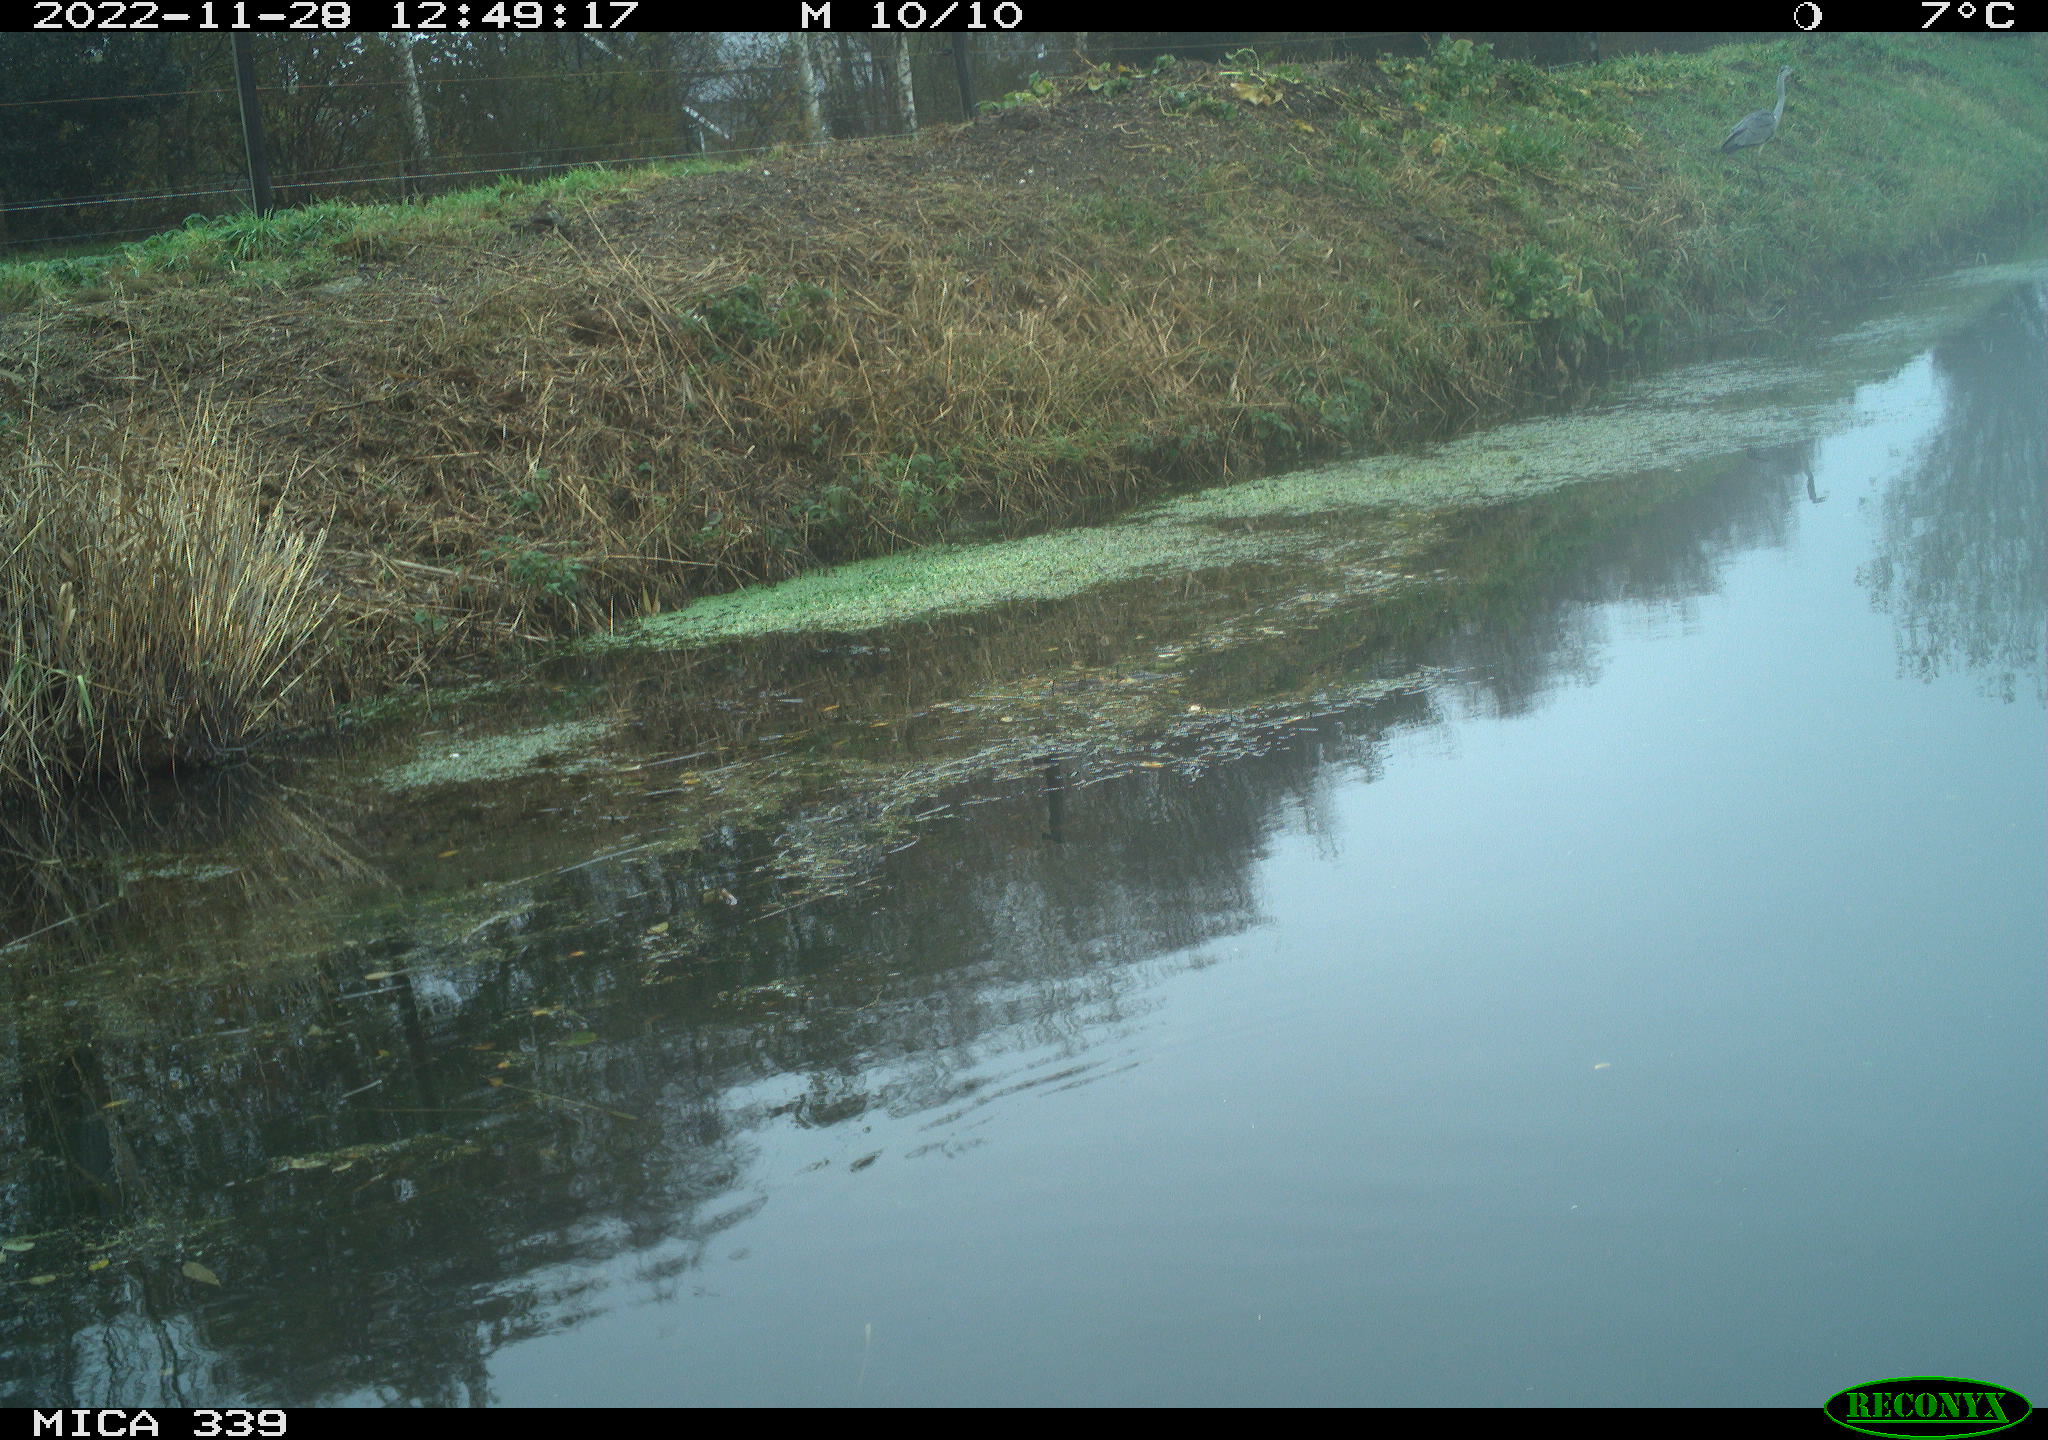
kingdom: Animalia
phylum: Chordata
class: Aves
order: Pelecaniformes
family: Ardeidae
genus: Ardea
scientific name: Ardea cinerea
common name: Grey heron
